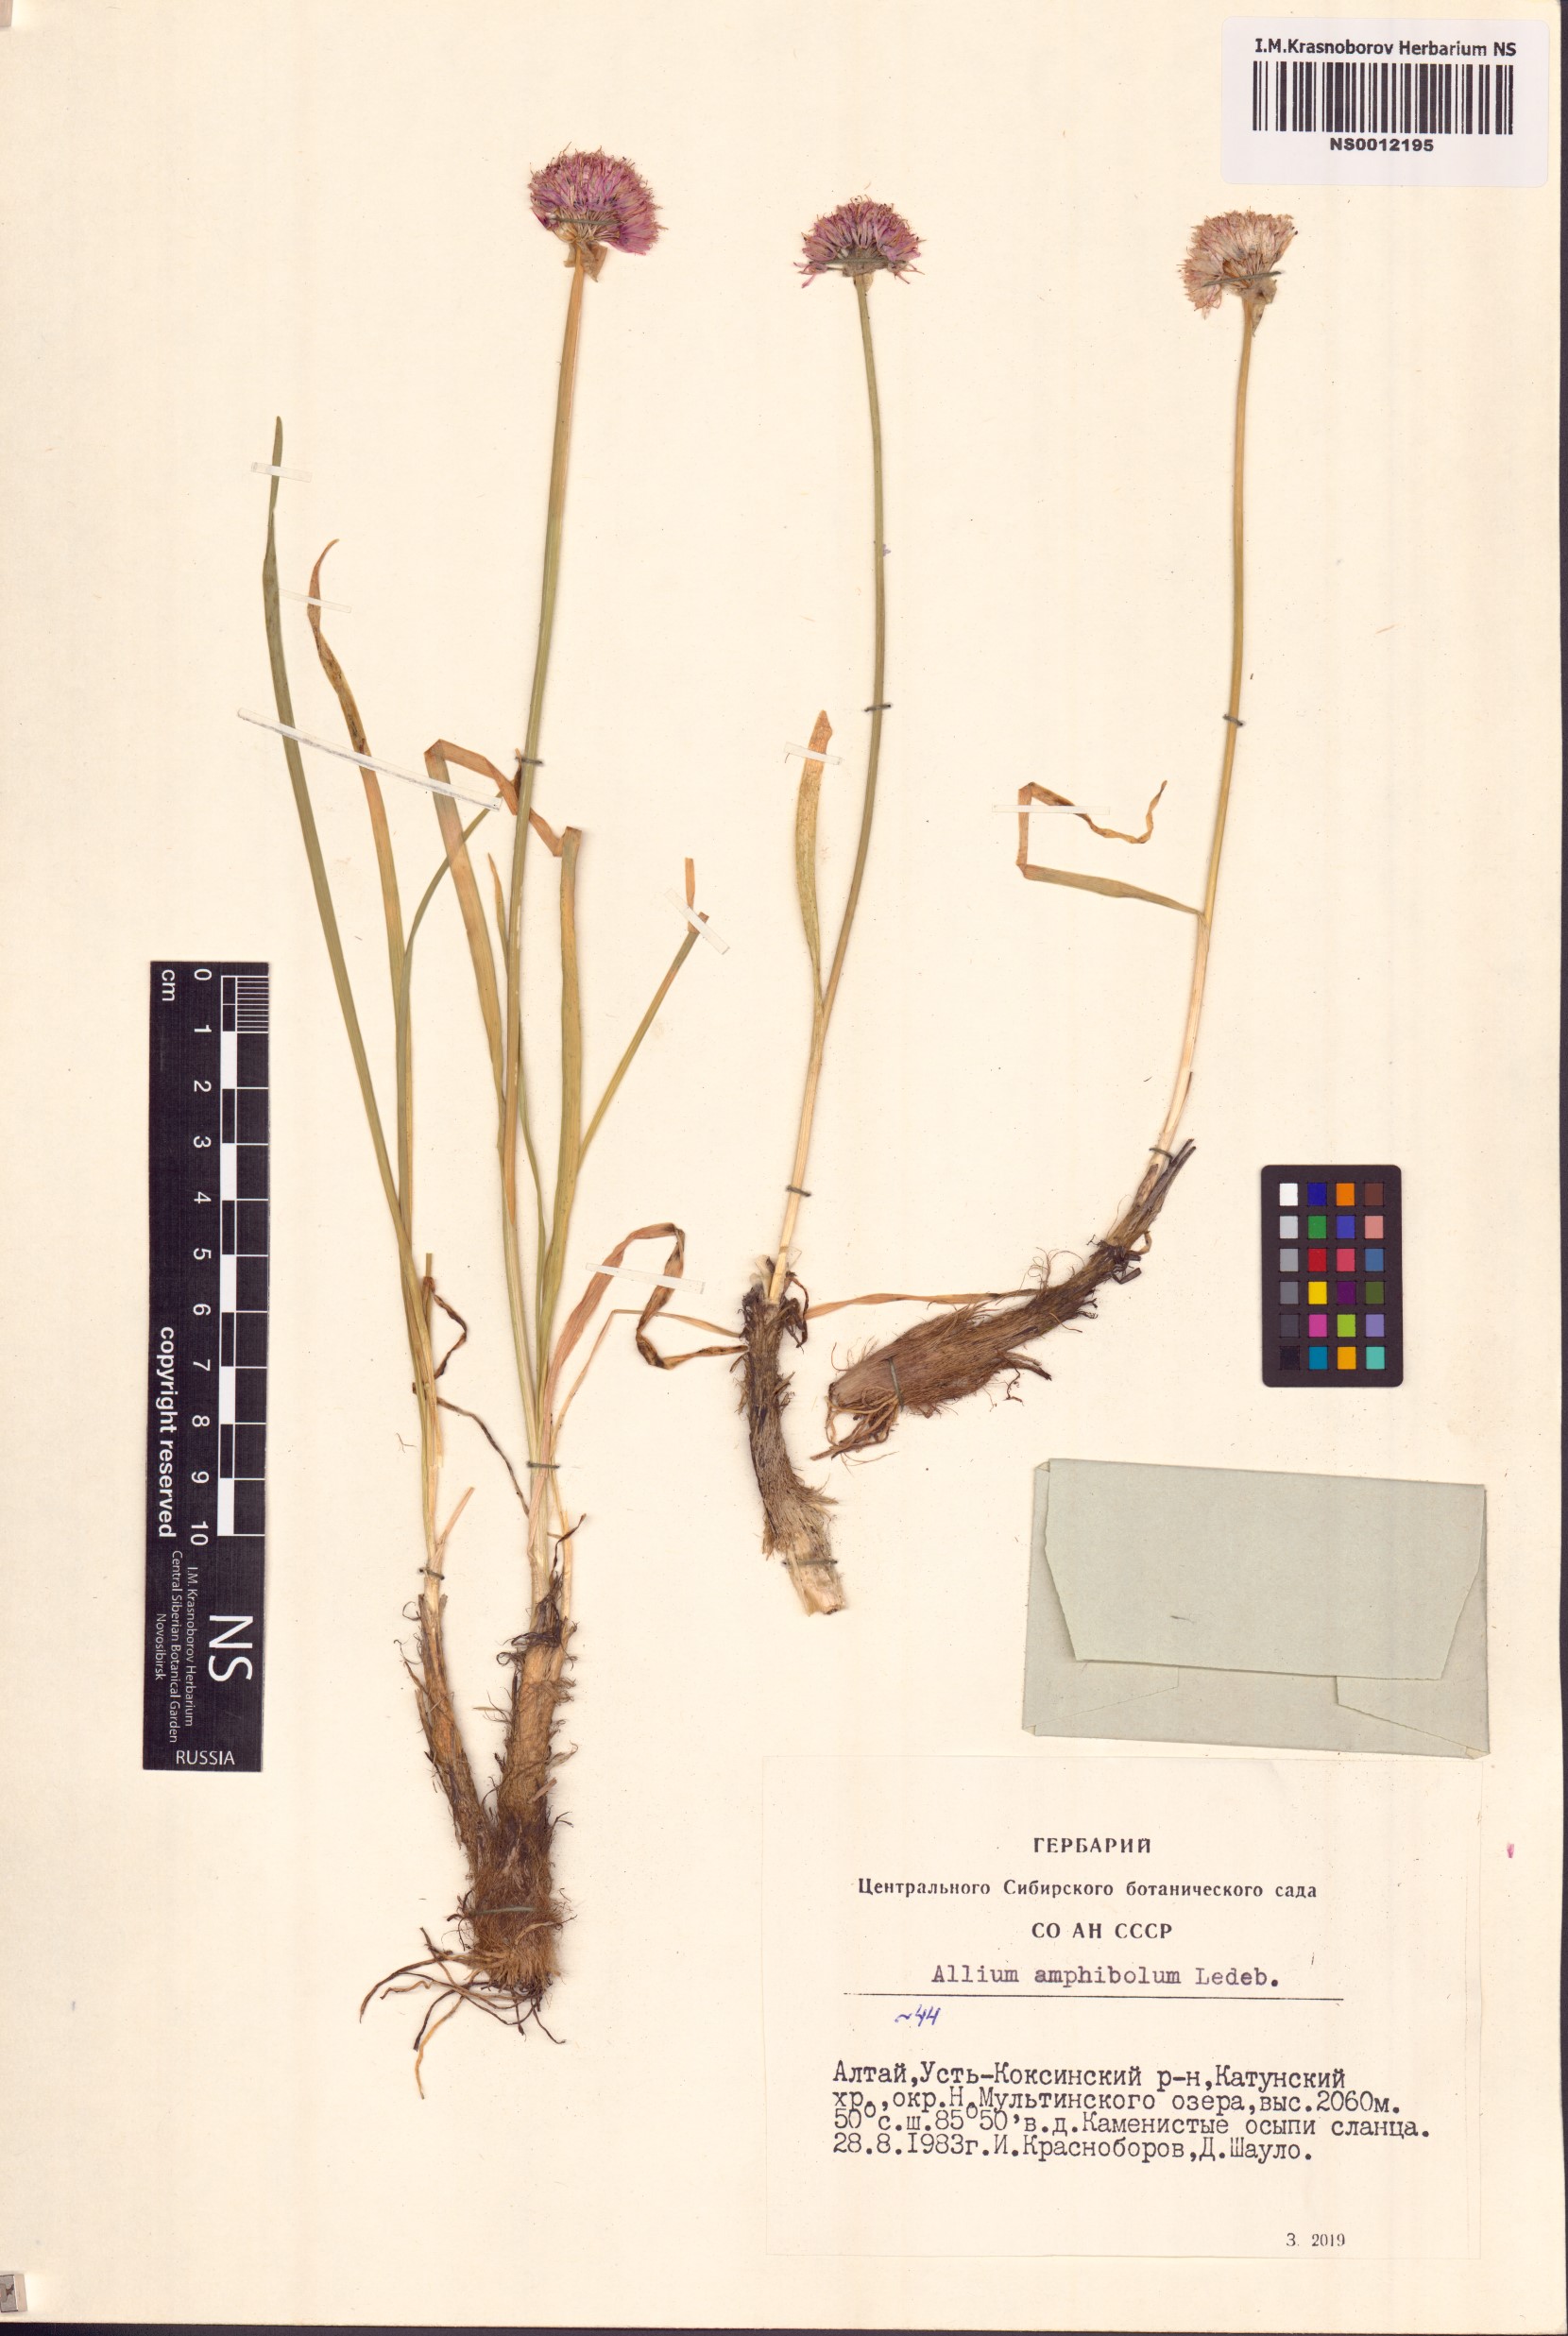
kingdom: Plantae
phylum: Tracheophyta
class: Liliopsida
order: Asparagales
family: Amaryllidaceae
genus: Allium
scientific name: Allium amphibolum
